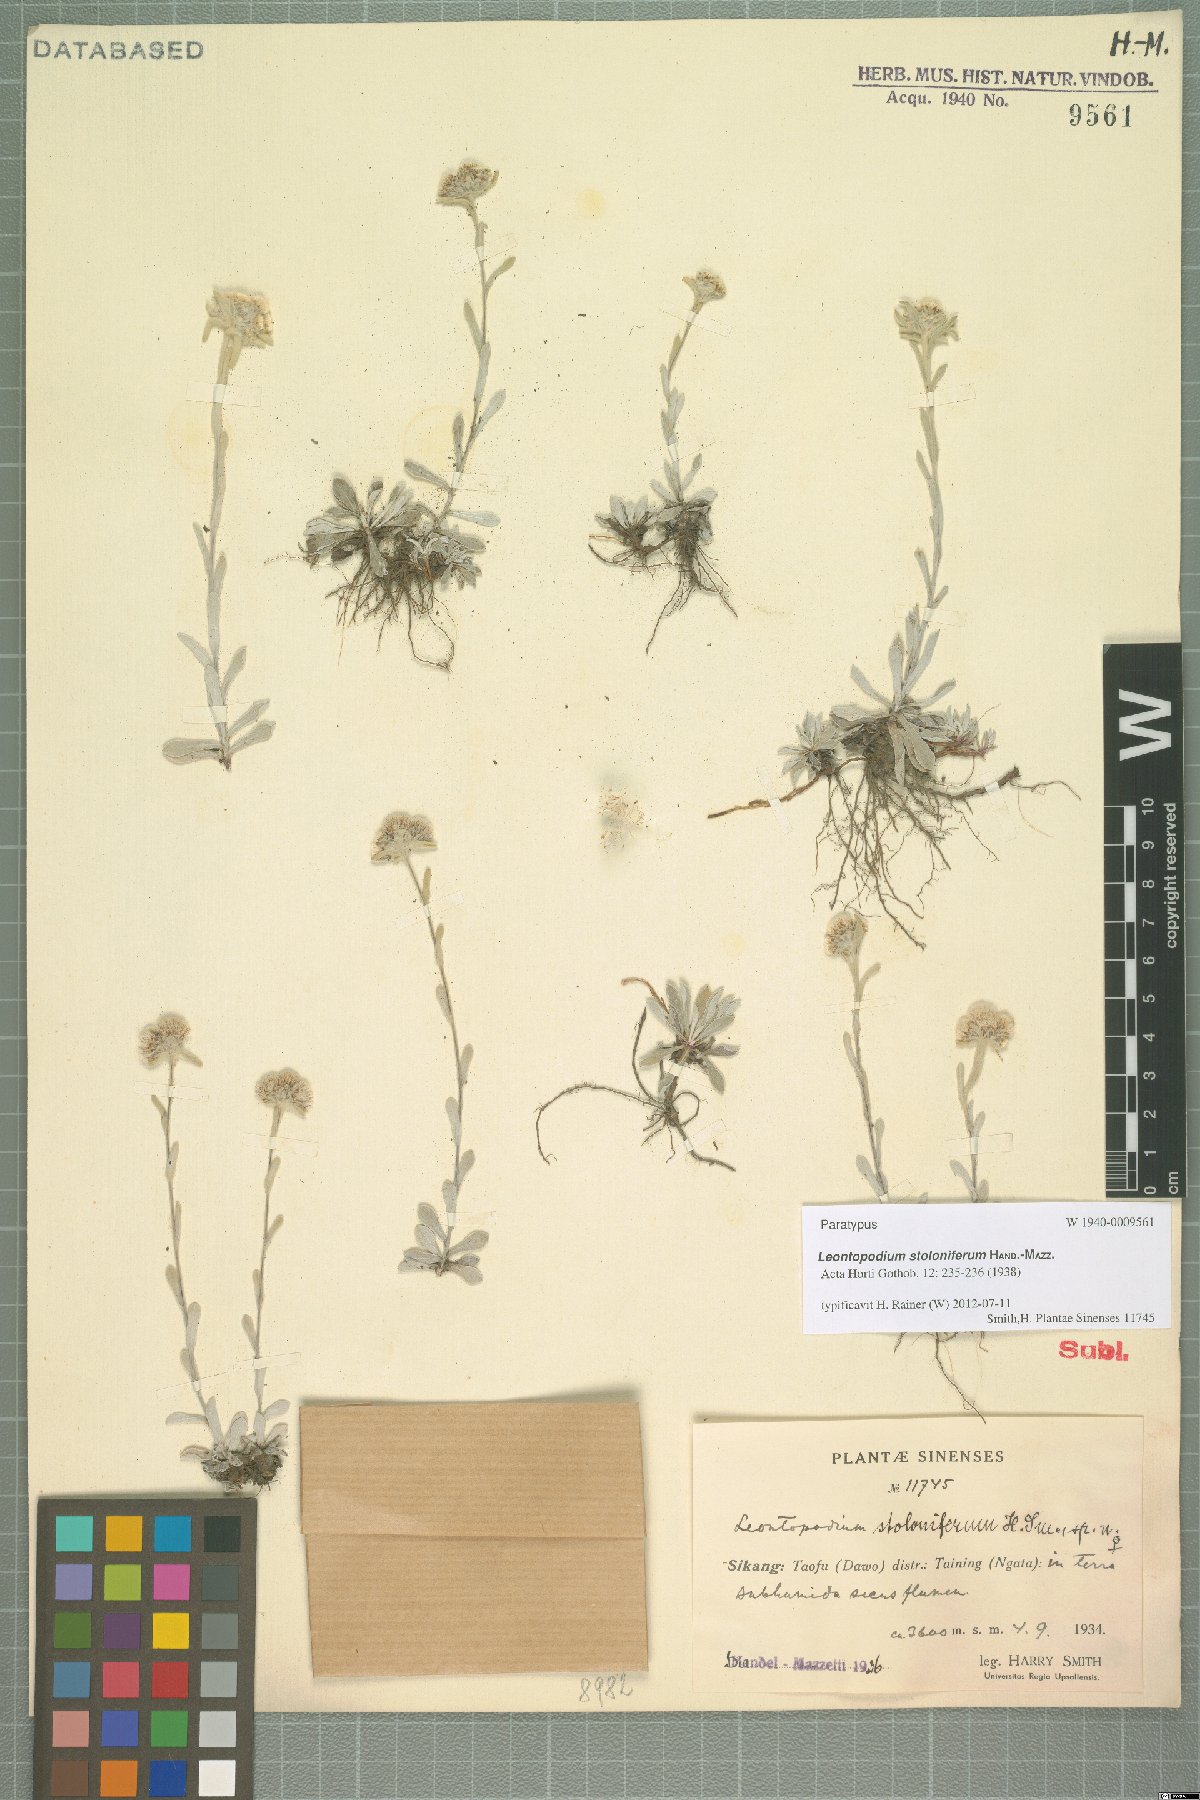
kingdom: Plantae
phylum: Tracheophyta
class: Magnoliopsida
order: Asterales
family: Asteraceae
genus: Leontopodium
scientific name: Leontopodium stoloniferum
